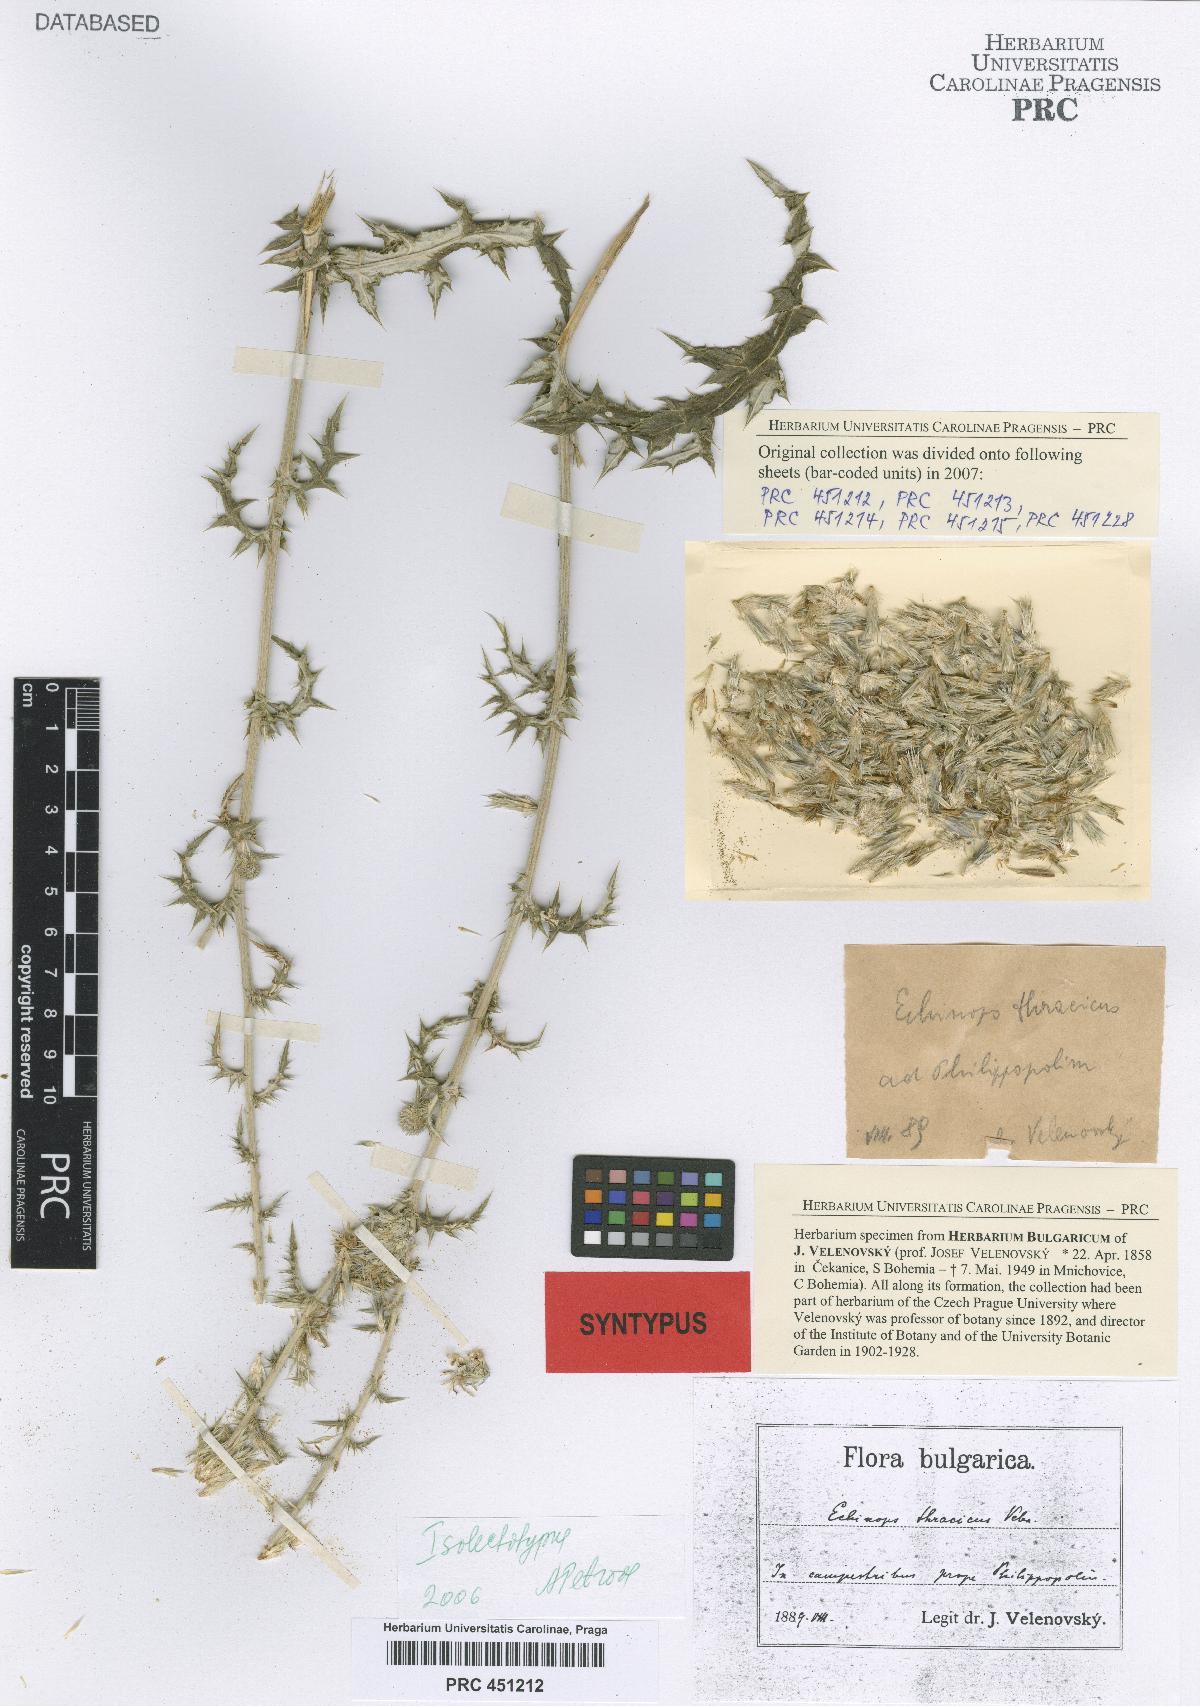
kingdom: Plantae
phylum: Tracheophyta
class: Magnoliopsida
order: Asterales
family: Asteraceae
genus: Echinops
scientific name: Echinops ritro
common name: Globe thistle
